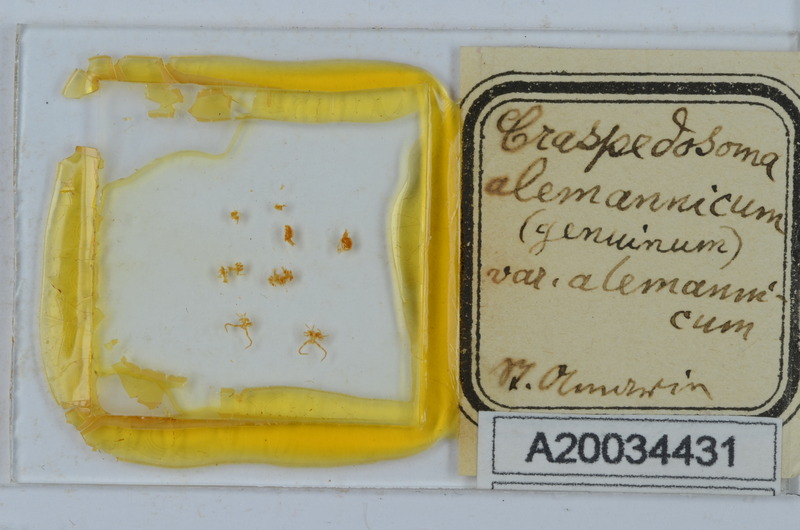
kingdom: Animalia
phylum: Arthropoda
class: Diplopoda
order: Chordeumatida
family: Craspedosomatidae
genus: Craspedosoma
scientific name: Craspedosoma rawlinsii
